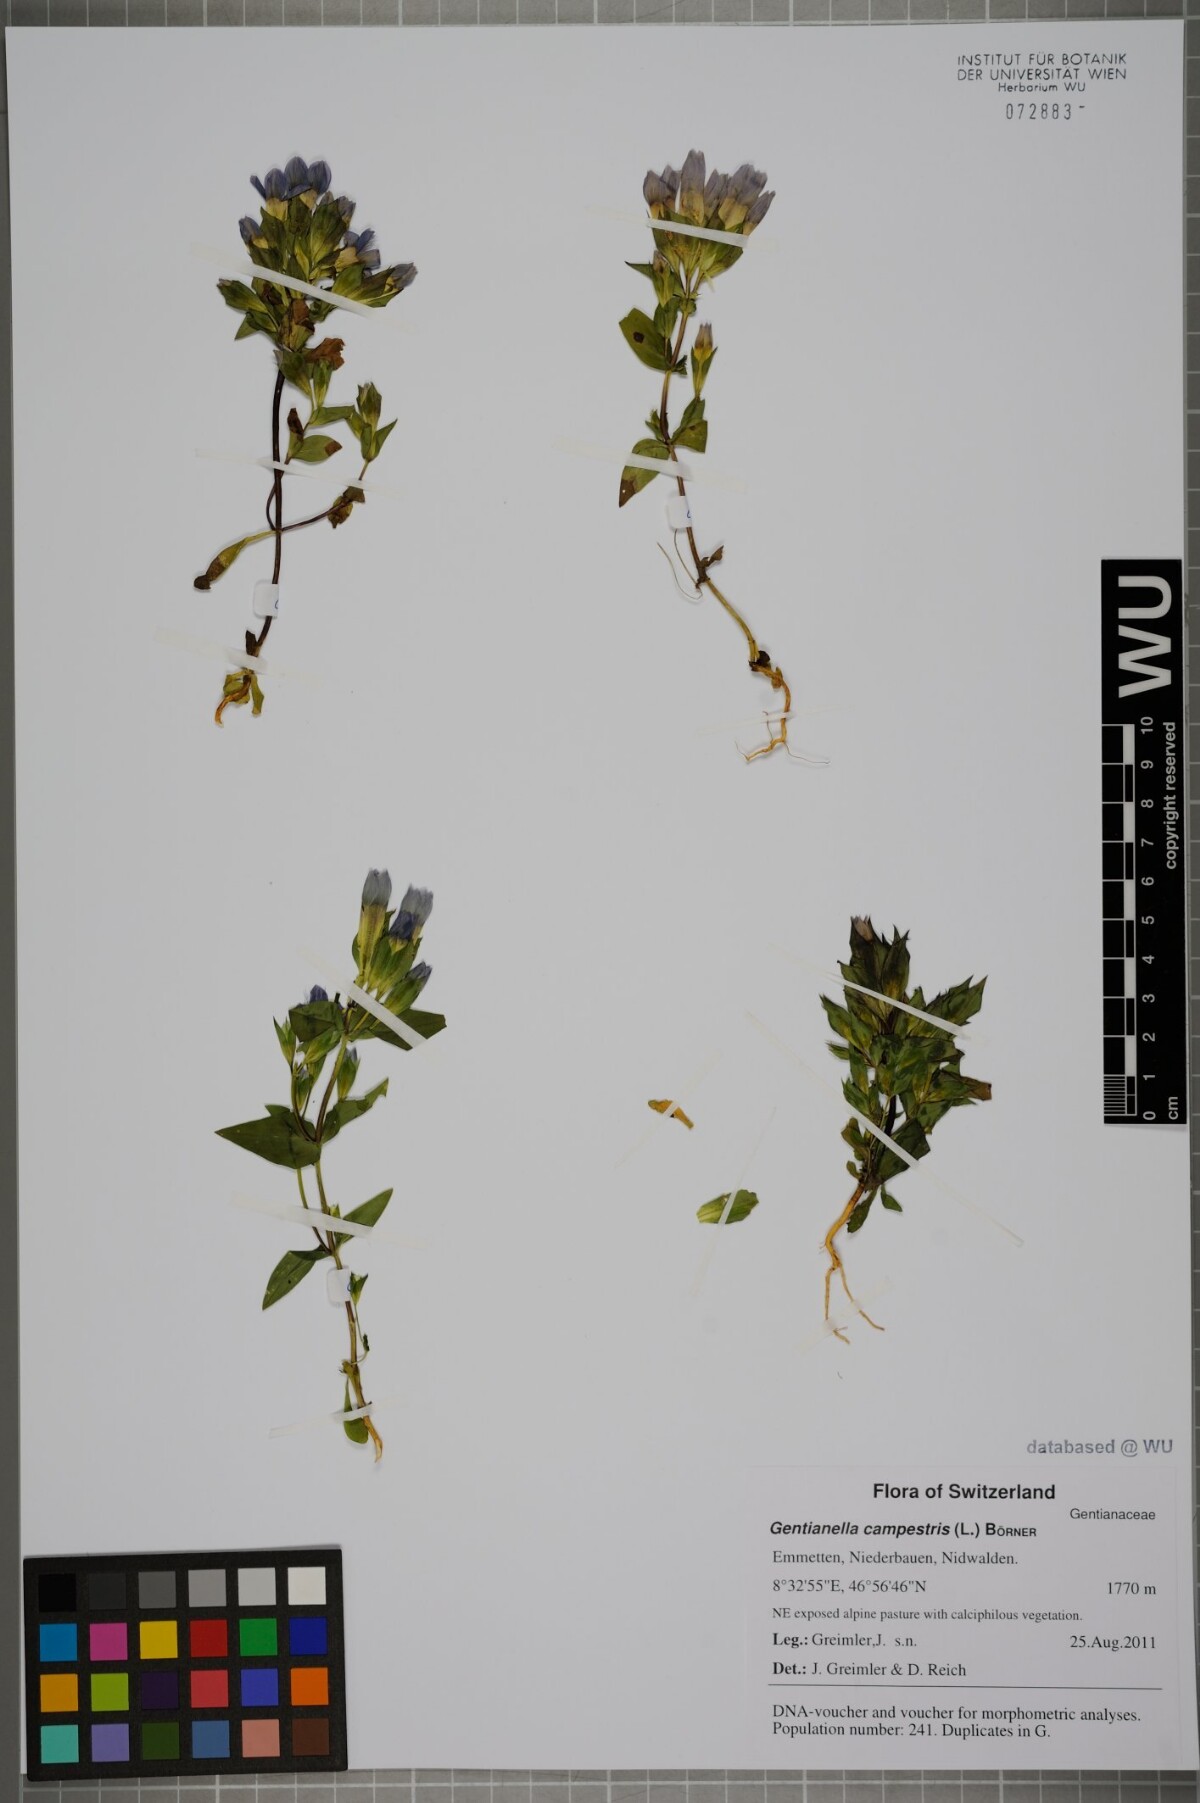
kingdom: Plantae
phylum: Tracheophyta
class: Magnoliopsida
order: Gentianales
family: Gentianaceae
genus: Gentianella
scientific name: Gentianella campestris
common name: Field gentian
